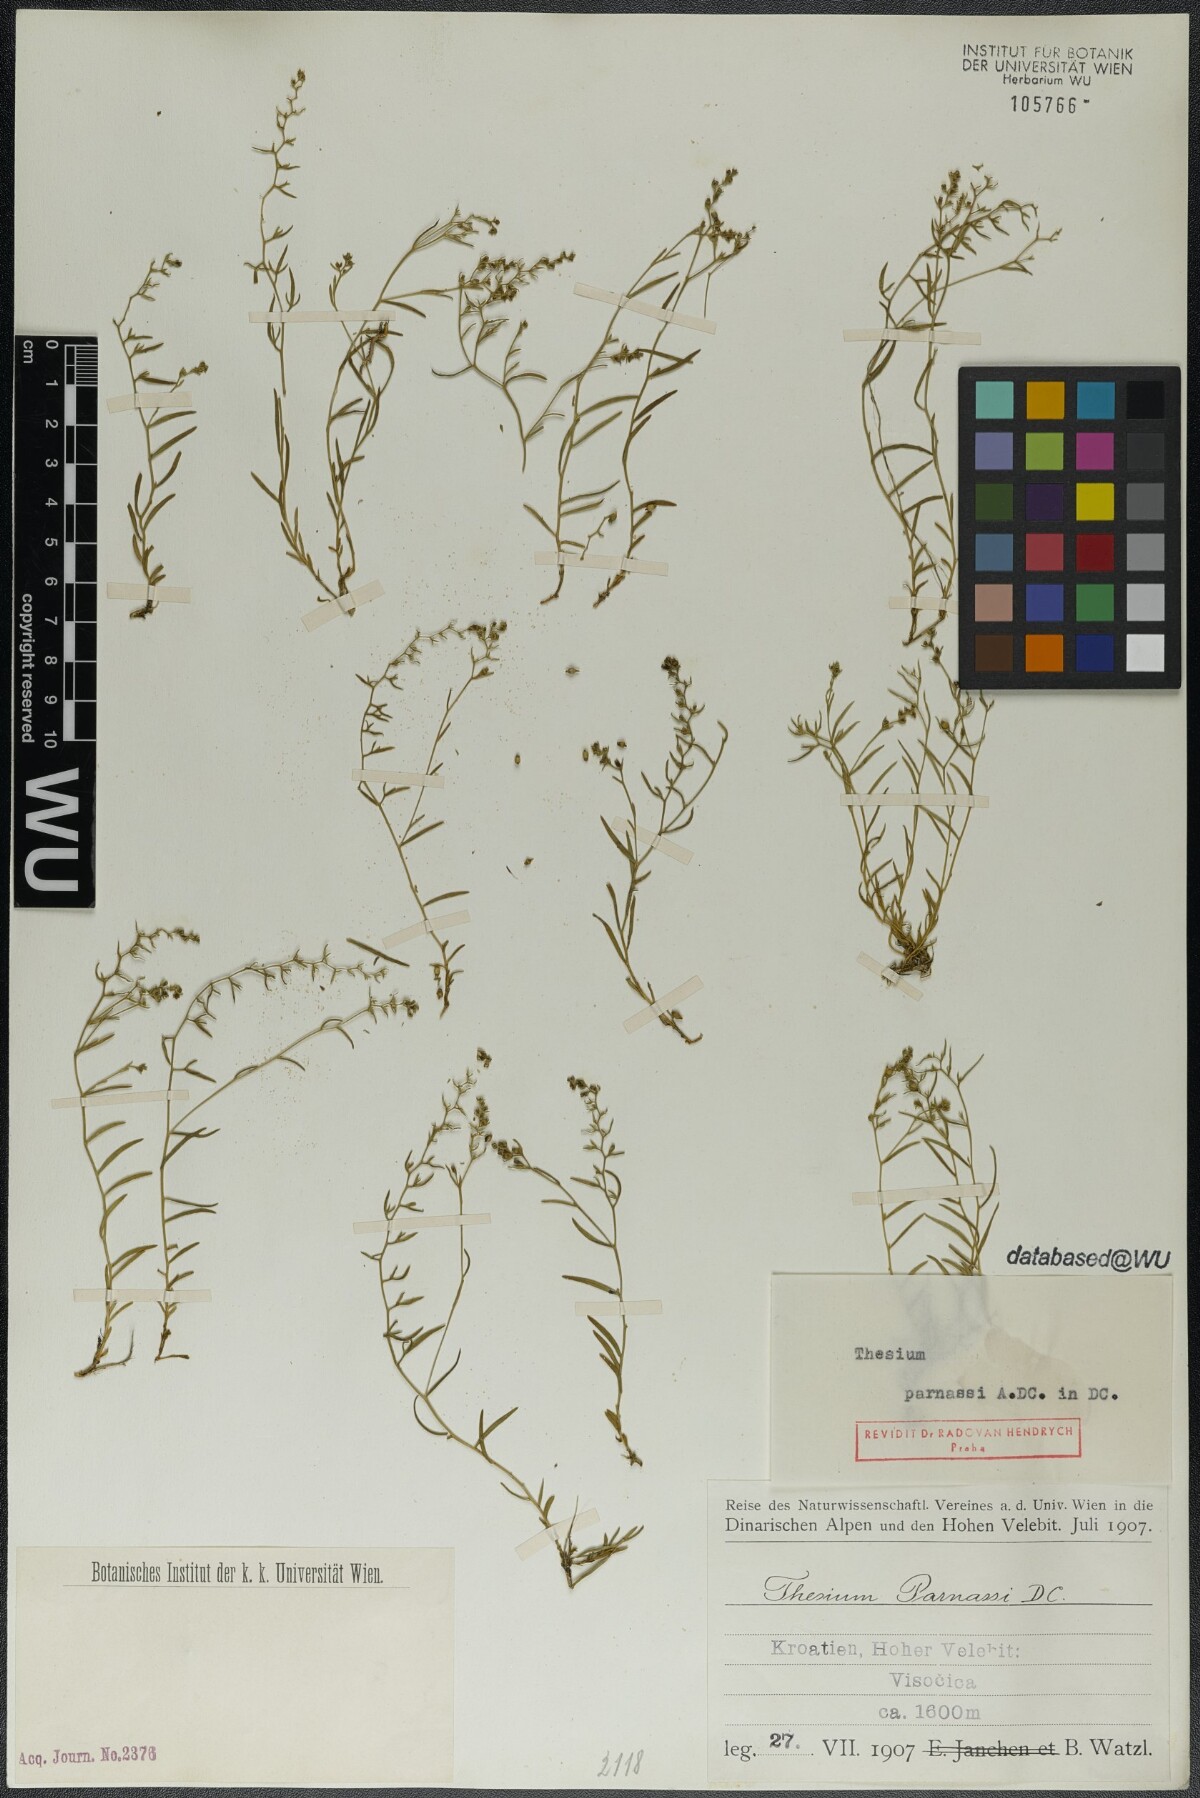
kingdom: Plantae
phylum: Tracheophyta
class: Magnoliopsida
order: Santalales
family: Thesiaceae
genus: Thesium
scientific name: Thesium parnassi
